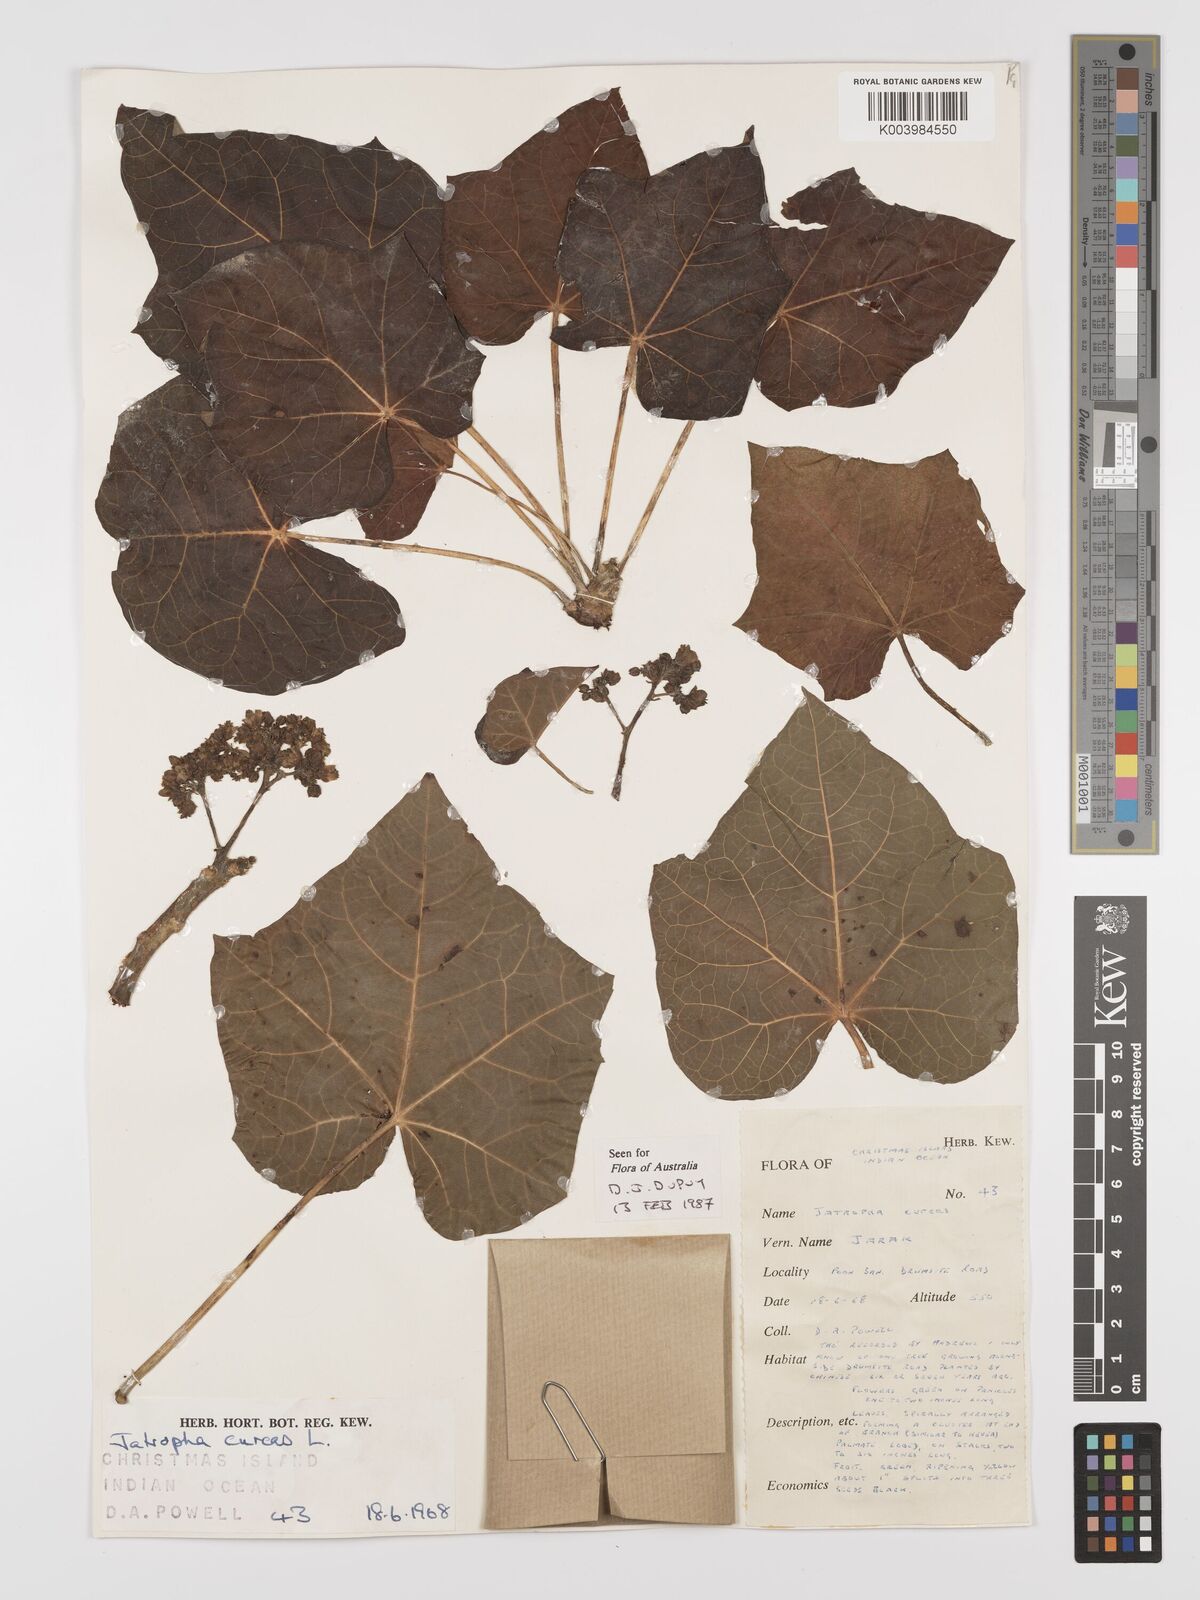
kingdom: Plantae
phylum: Tracheophyta
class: Magnoliopsida
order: Malpighiales
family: Euphorbiaceae
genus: Jatropha
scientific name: Jatropha curcas
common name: Barbados nut
